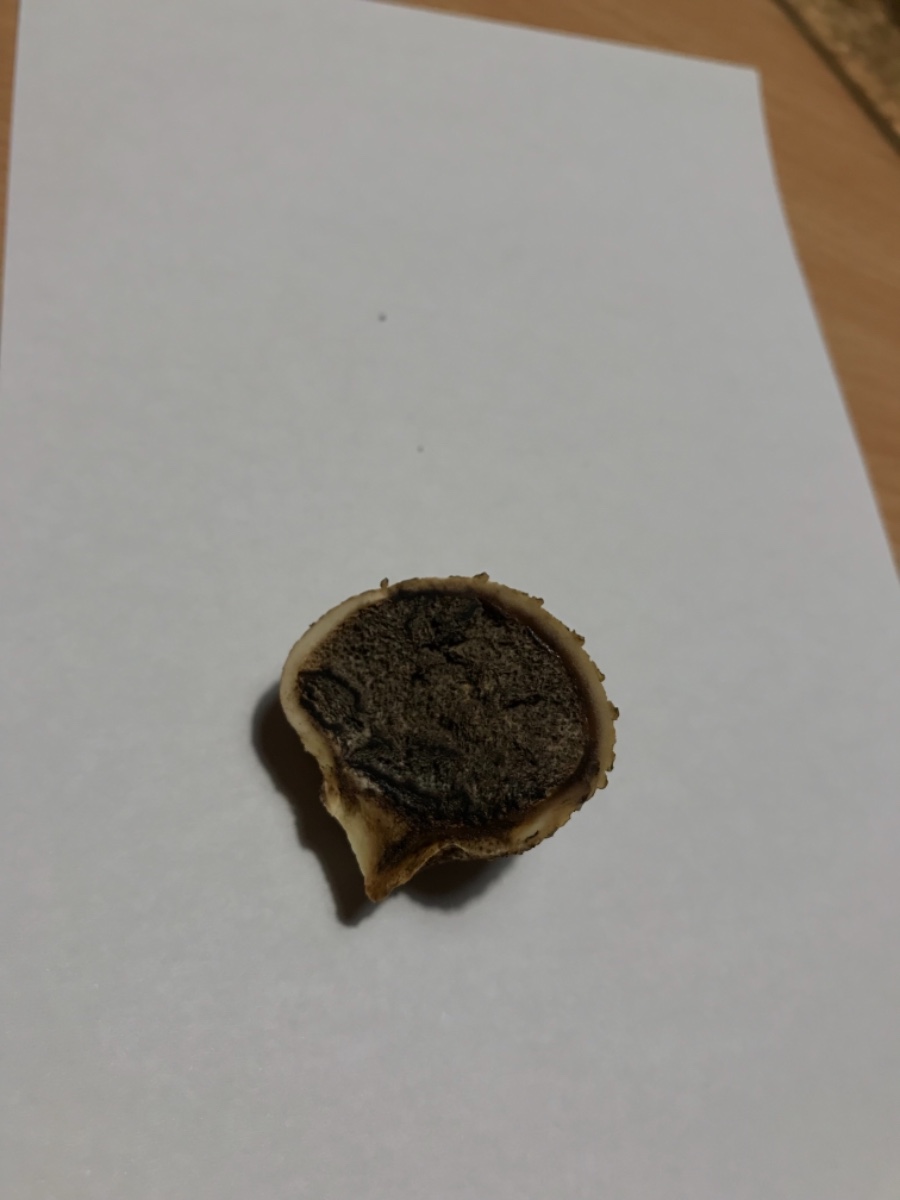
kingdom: Fungi
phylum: Basidiomycota
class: Agaricomycetes
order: Boletales
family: Sclerodermataceae
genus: Scleroderma
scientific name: Scleroderma citrinum
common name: almindelig bruskbold
